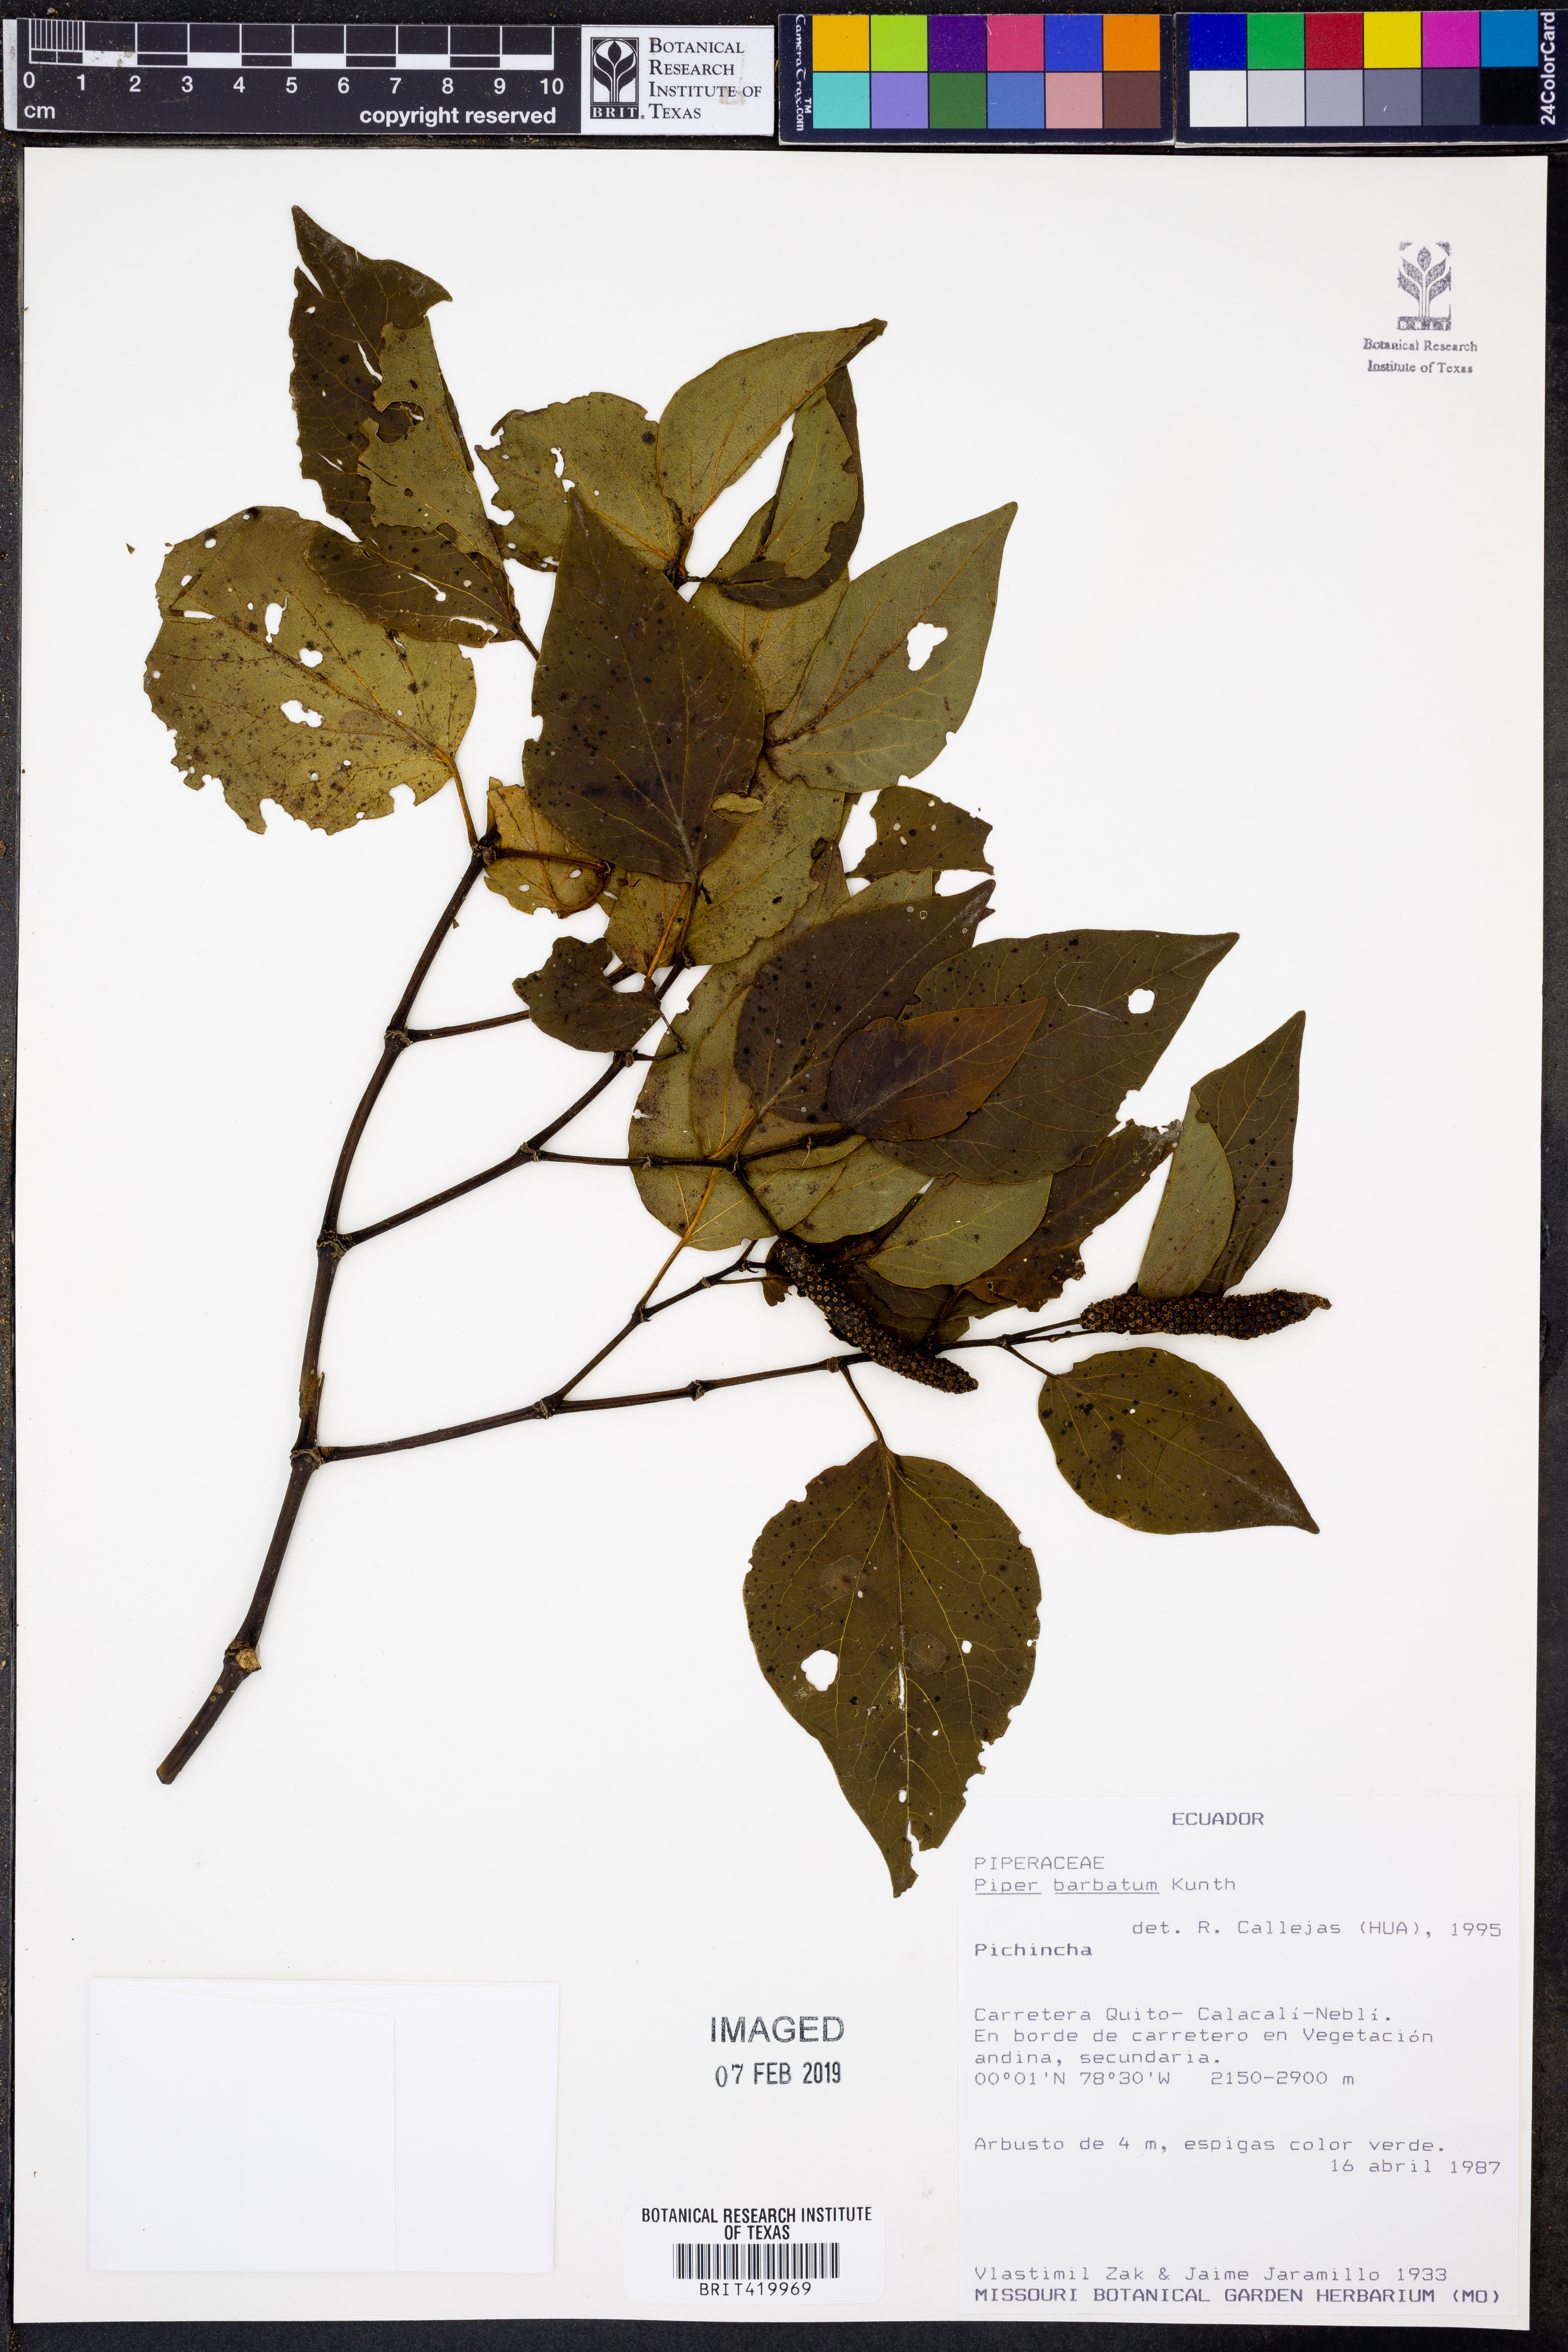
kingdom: Plantae
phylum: Tracheophyta
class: Magnoliopsida
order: Piperales
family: Piperaceae
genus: Piper
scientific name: Piper barbatum
